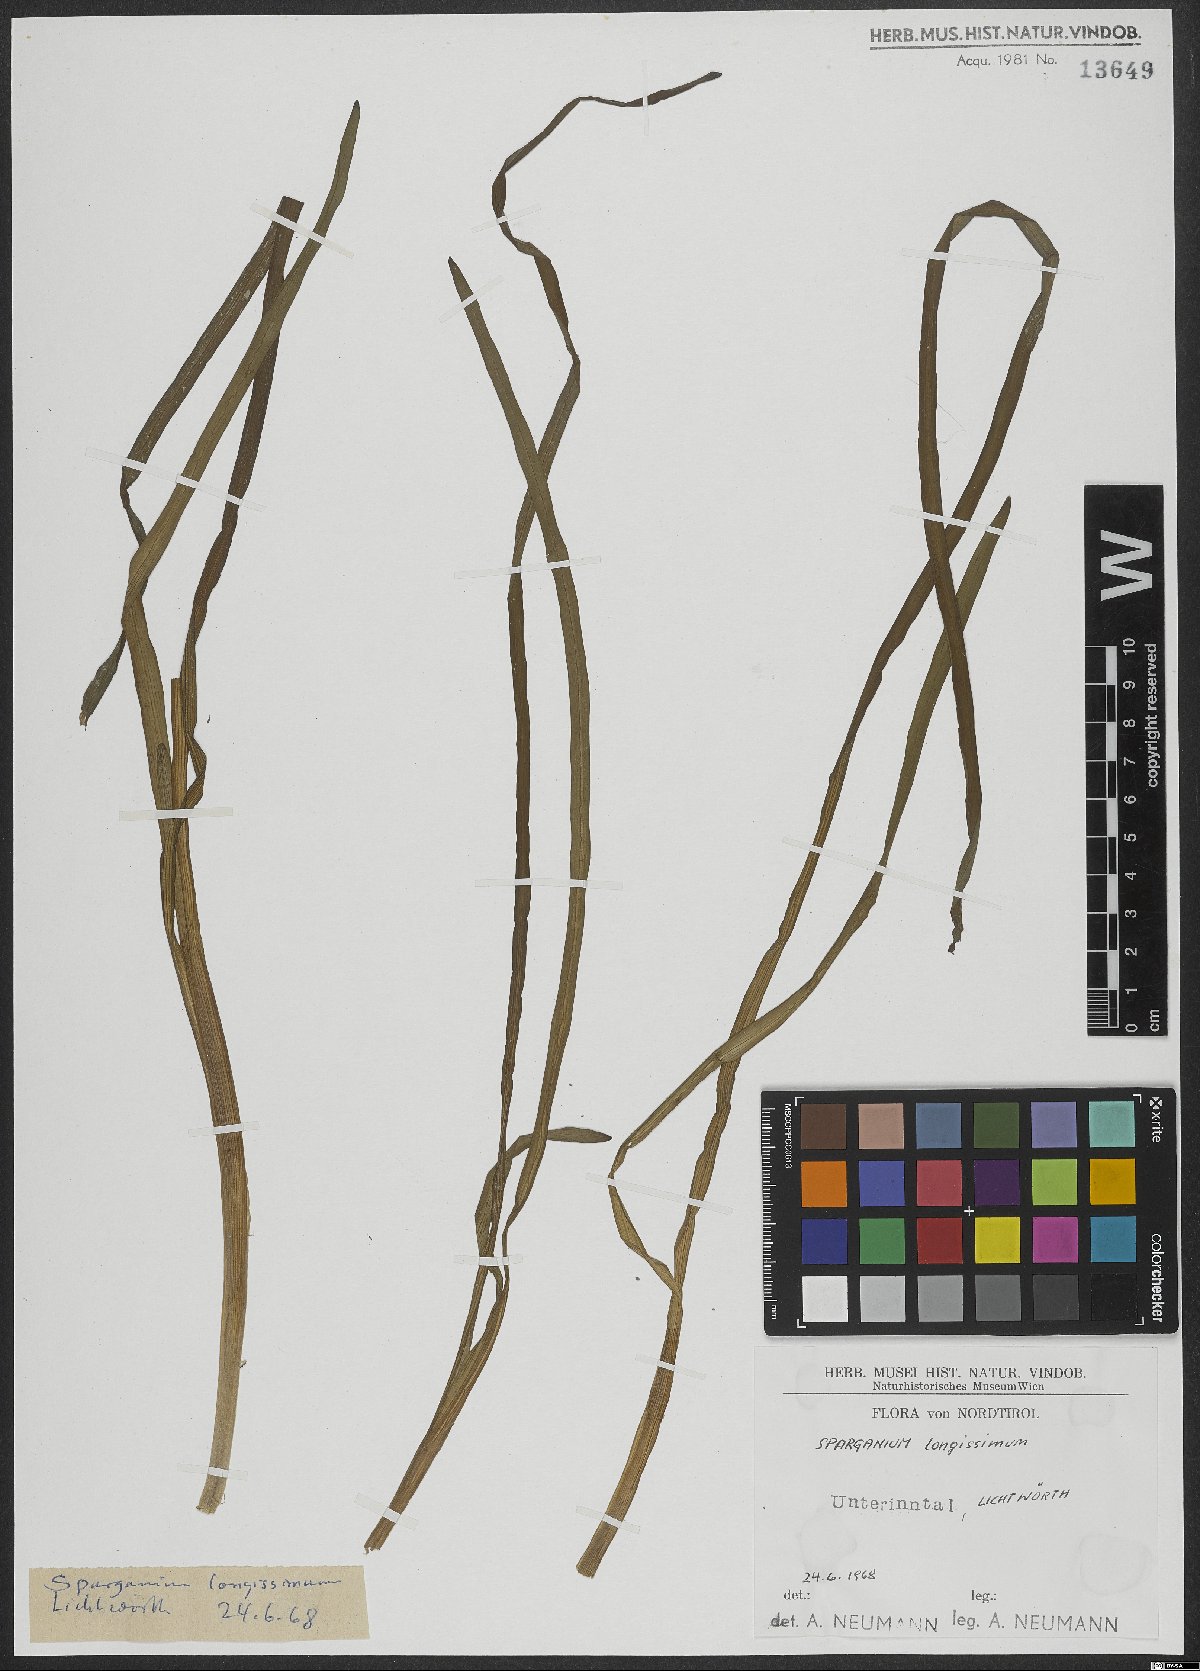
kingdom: Plantae
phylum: Tracheophyta
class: Liliopsida
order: Poales
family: Typhaceae
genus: Sparganium
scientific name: Sparganium emersum
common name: Unbranched bur-reed
